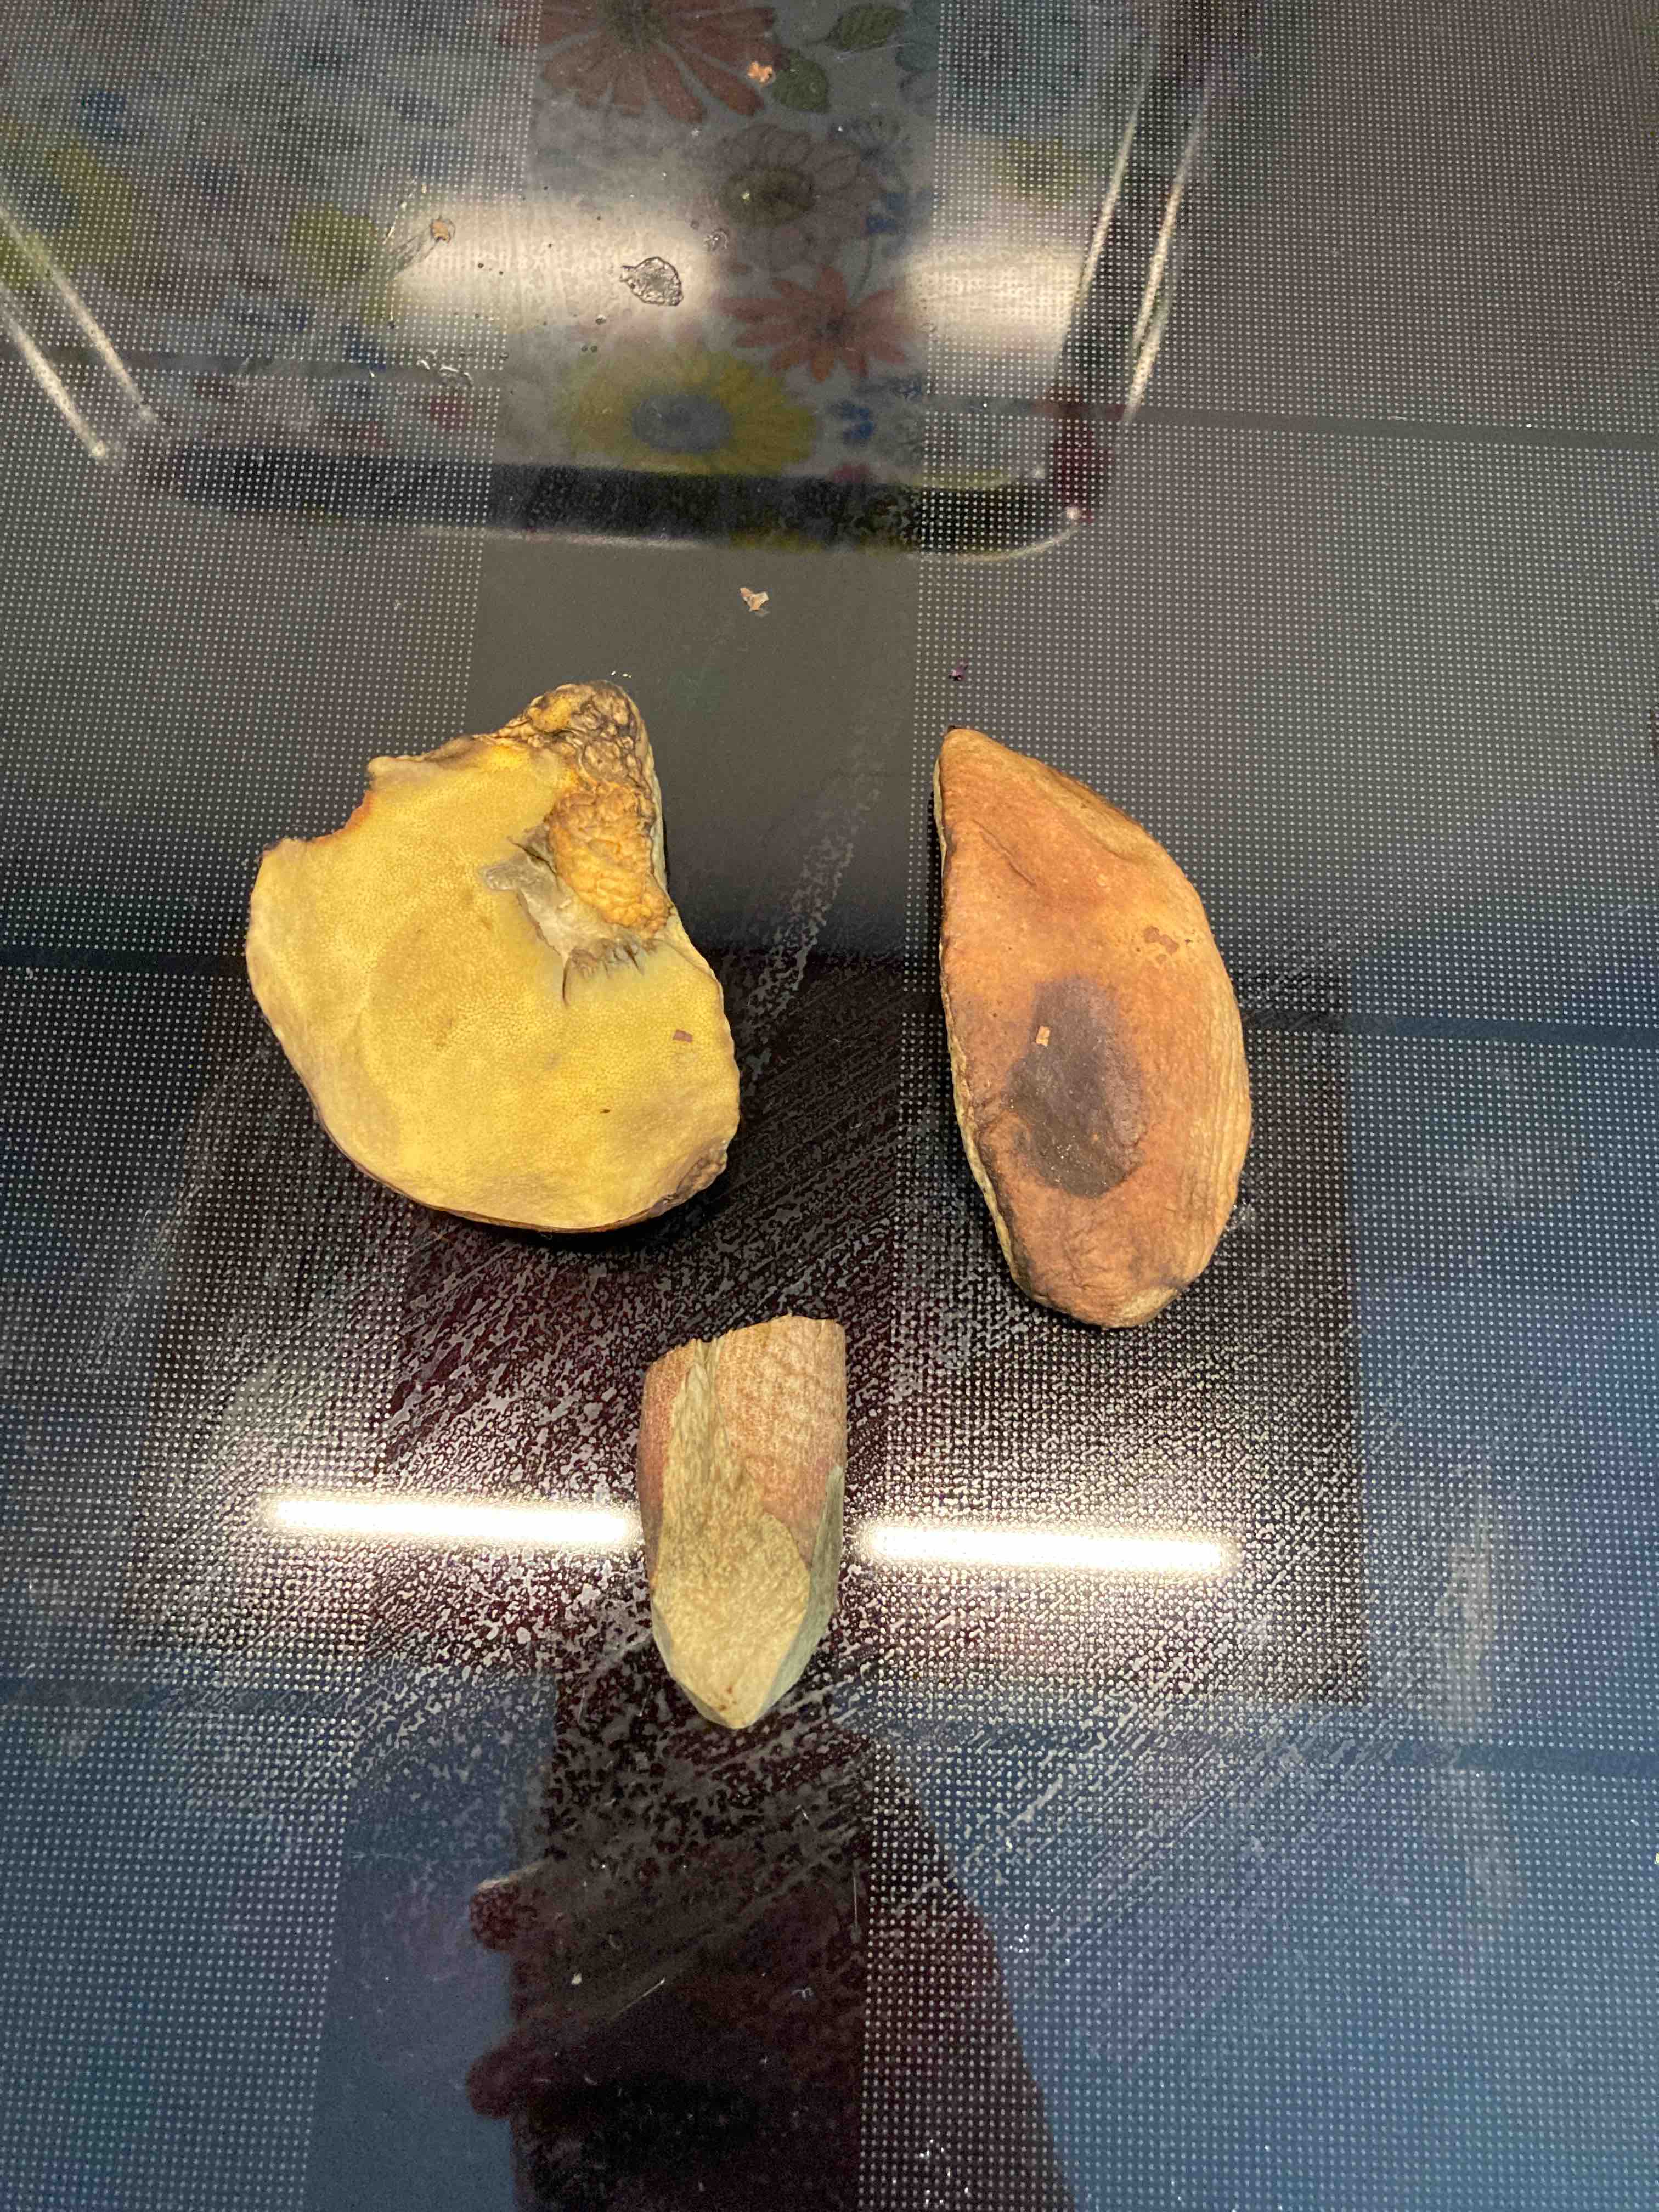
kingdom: Fungi
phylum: Basidiomycota
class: Agaricomycetes
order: Boletales
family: Boletaceae
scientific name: Boletaceae
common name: rørhatfamilien
